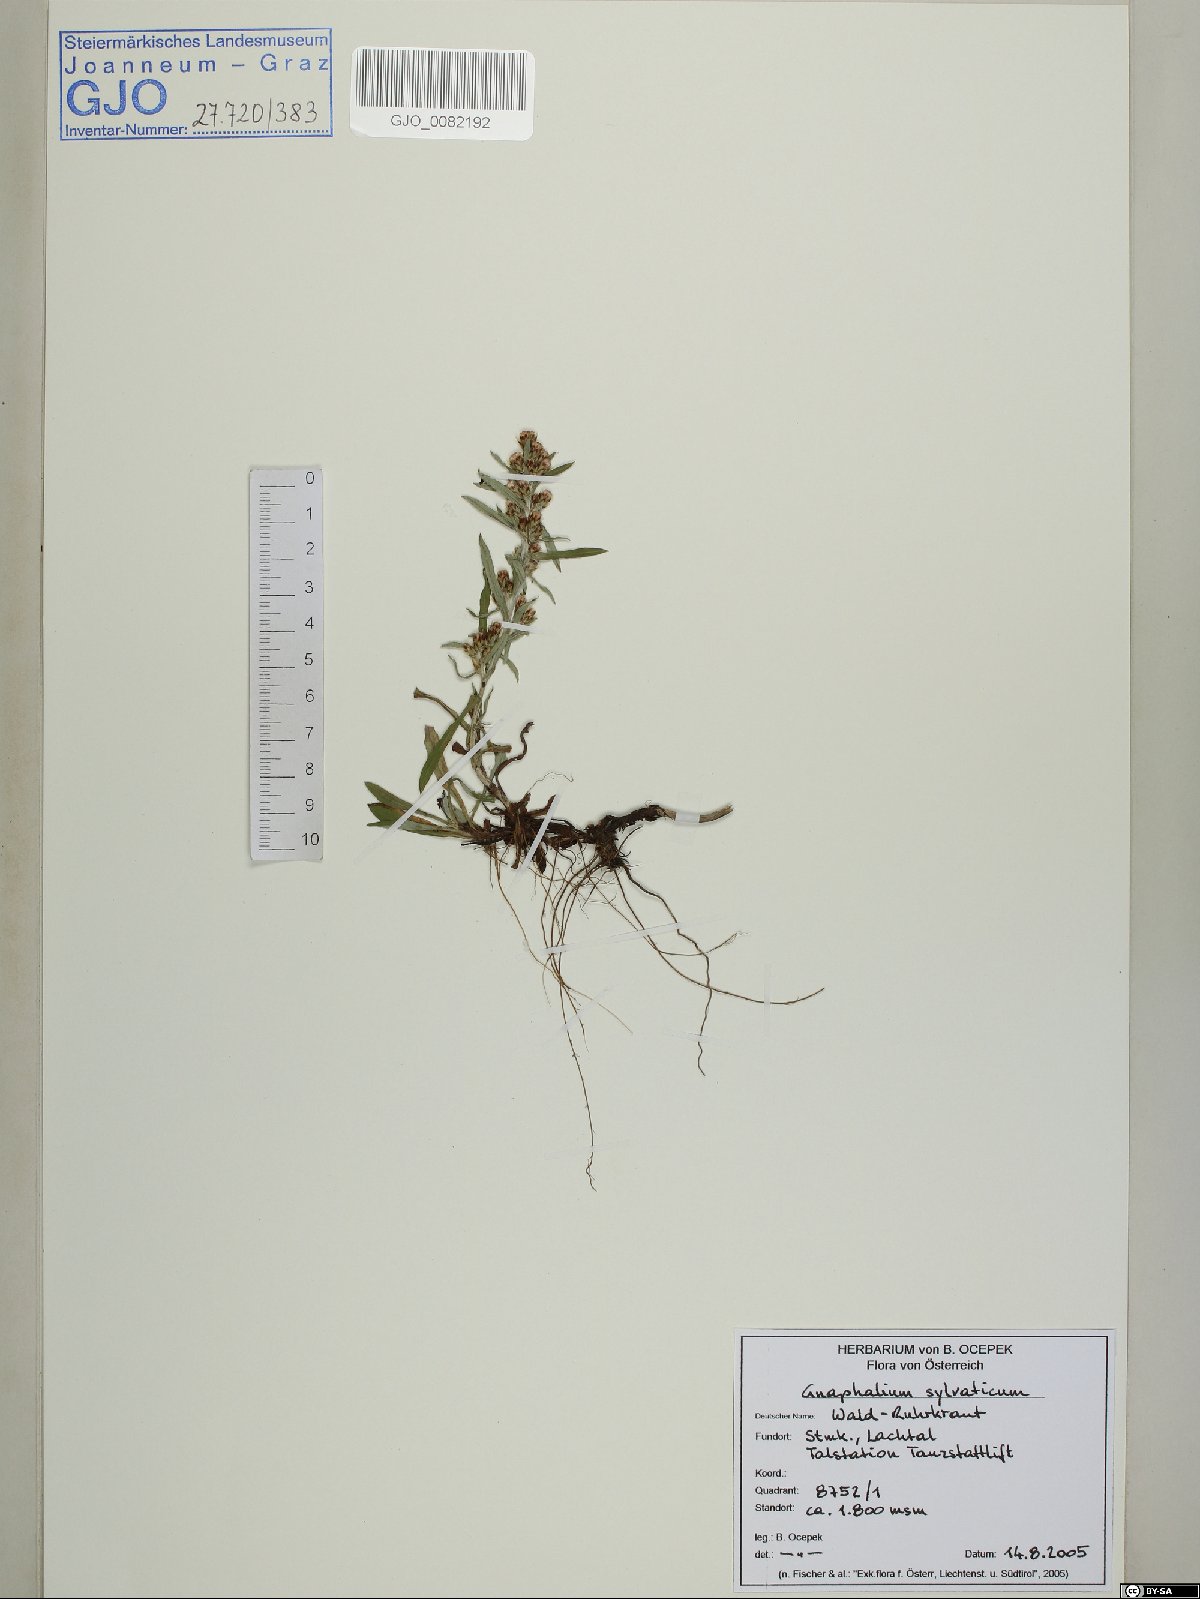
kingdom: Plantae
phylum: Tracheophyta
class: Magnoliopsida
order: Asterales
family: Asteraceae
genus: Omalotheca
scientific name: Omalotheca sylvatica
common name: Heath cudweed
